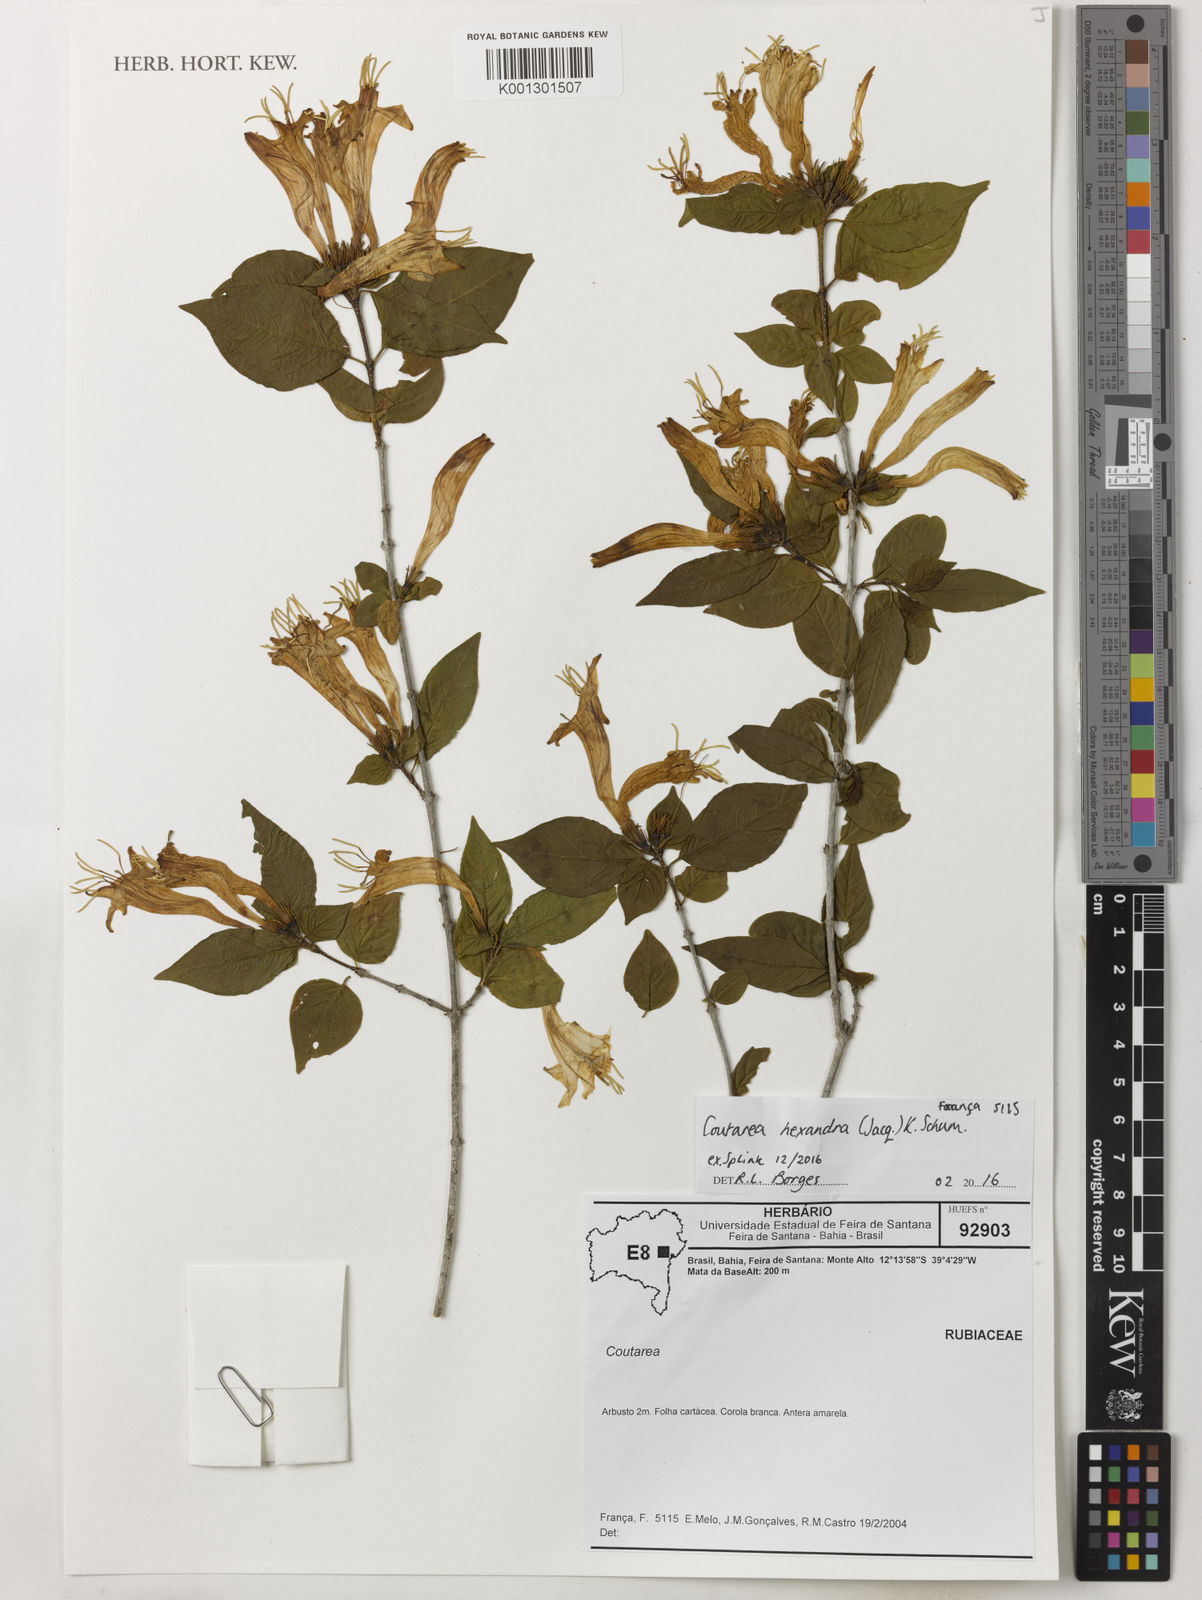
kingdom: Plantae
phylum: Tracheophyta
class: Magnoliopsida
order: Gentianales
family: Rubiaceae
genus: Coutarea
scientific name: Coutarea hexandra
